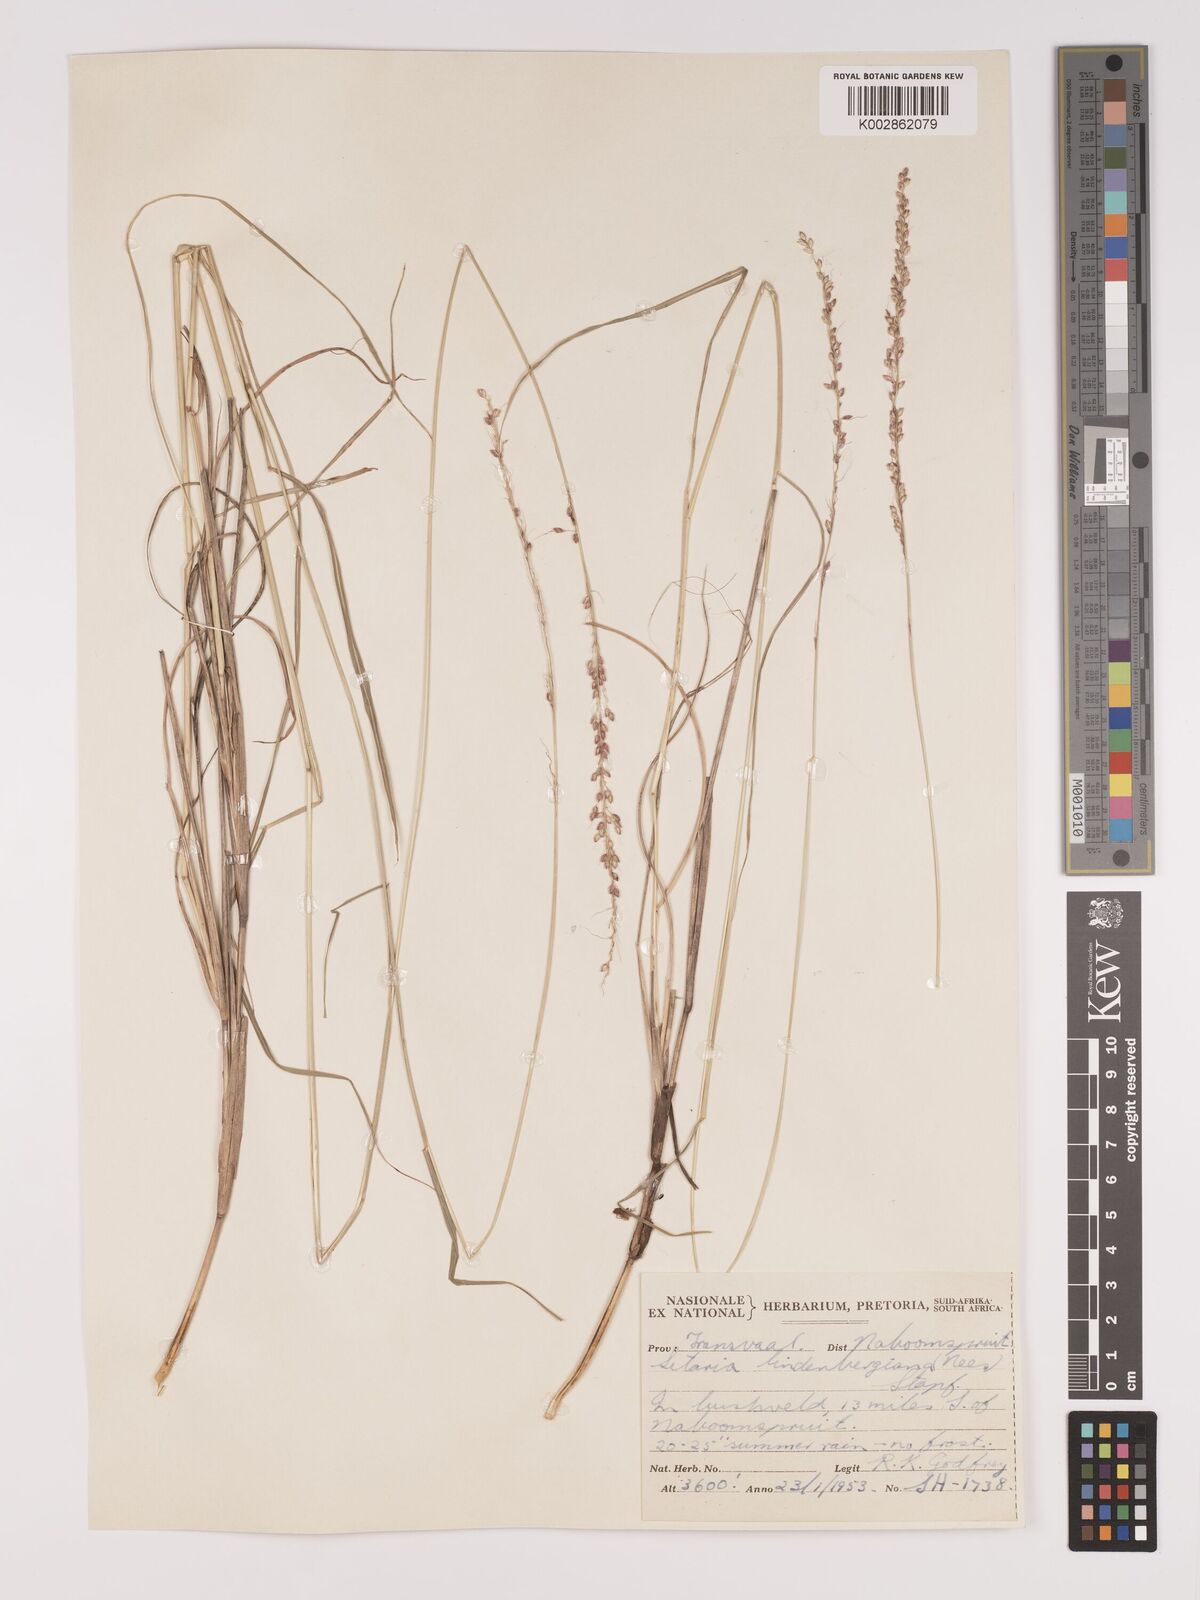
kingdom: Plantae
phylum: Tracheophyta
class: Liliopsida
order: Poales
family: Poaceae
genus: Setaria
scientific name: Setaria lindenbergiana
